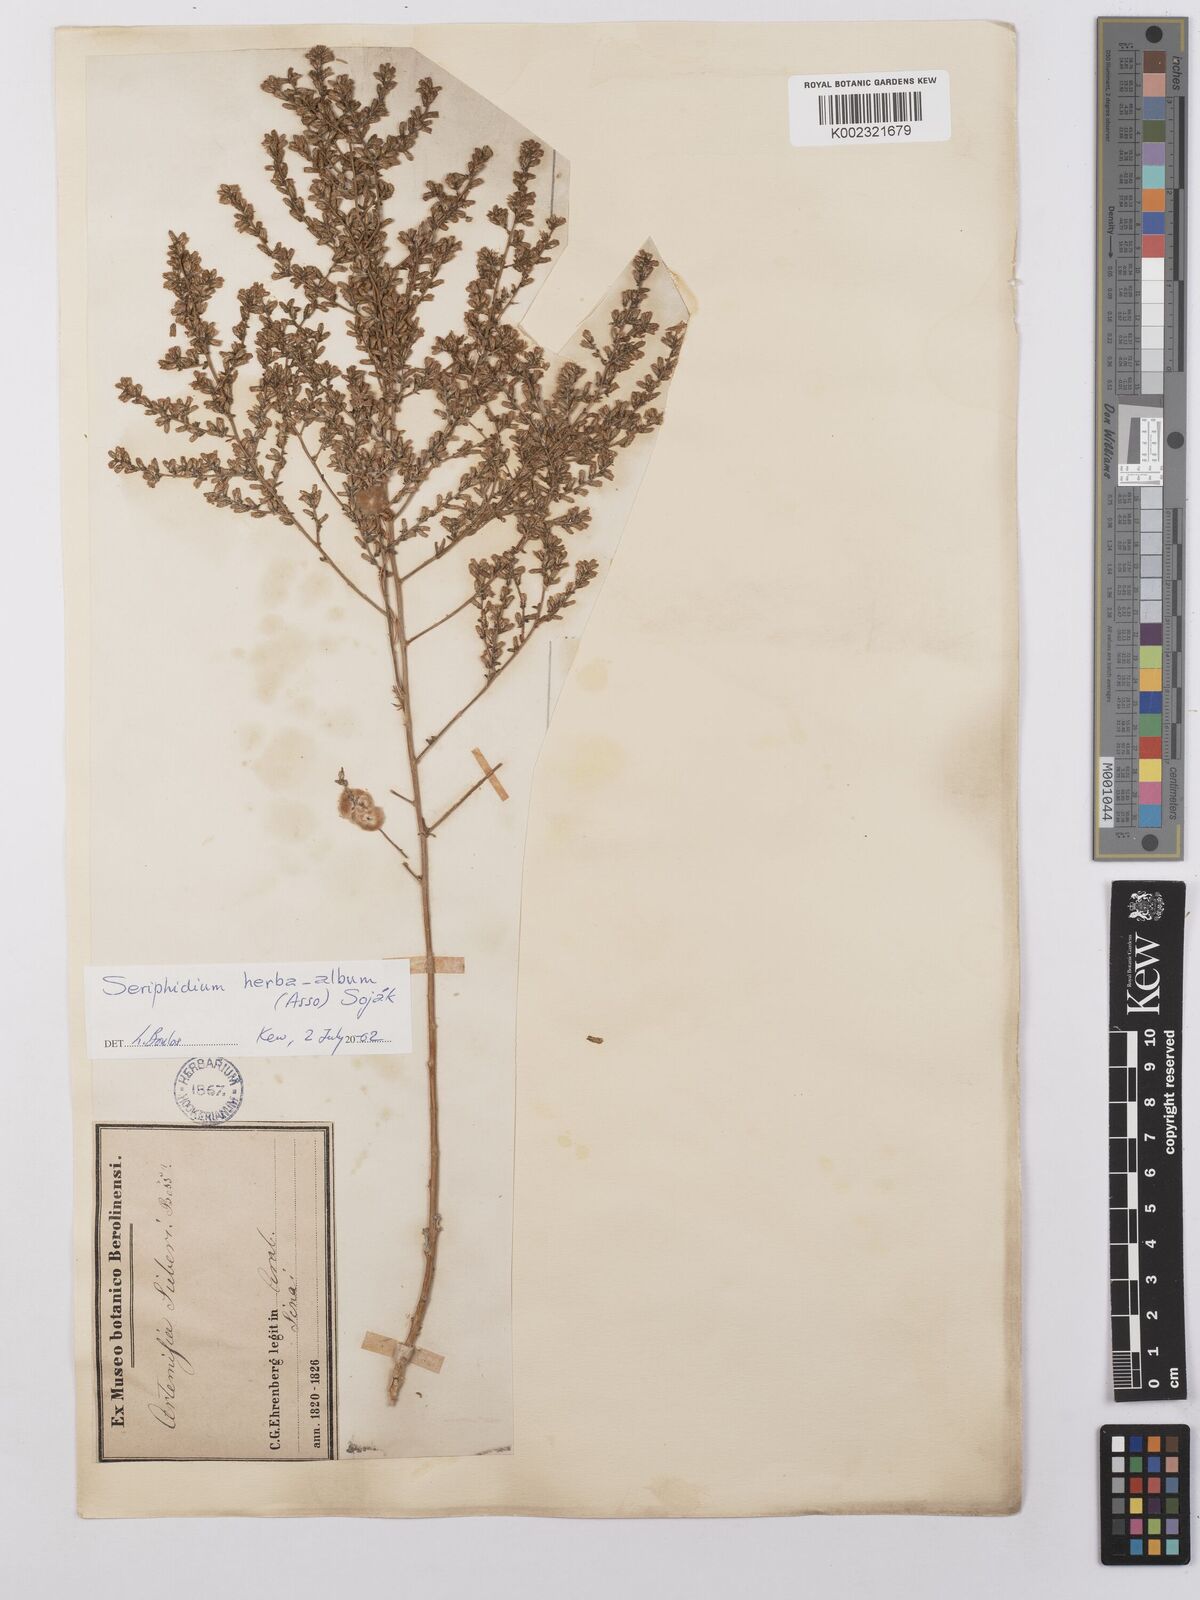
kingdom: Plantae
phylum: Tracheophyta
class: Magnoliopsida
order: Asterales
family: Asteraceae
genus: Artemisia
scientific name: Artemisia herba-alba
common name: White wormwood
